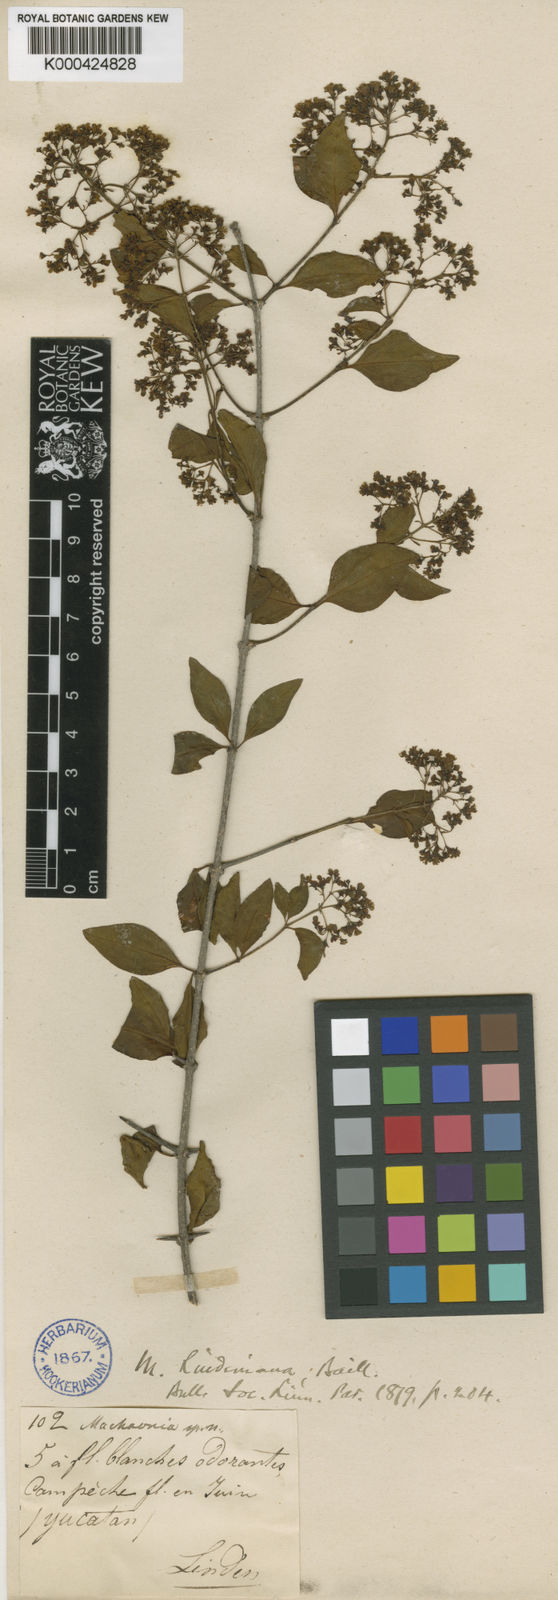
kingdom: Plantae
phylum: Tracheophyta
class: Magnoliopsida
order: Gentianales
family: Rubiaceae
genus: Machaonia
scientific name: Machaonia lindeniana
